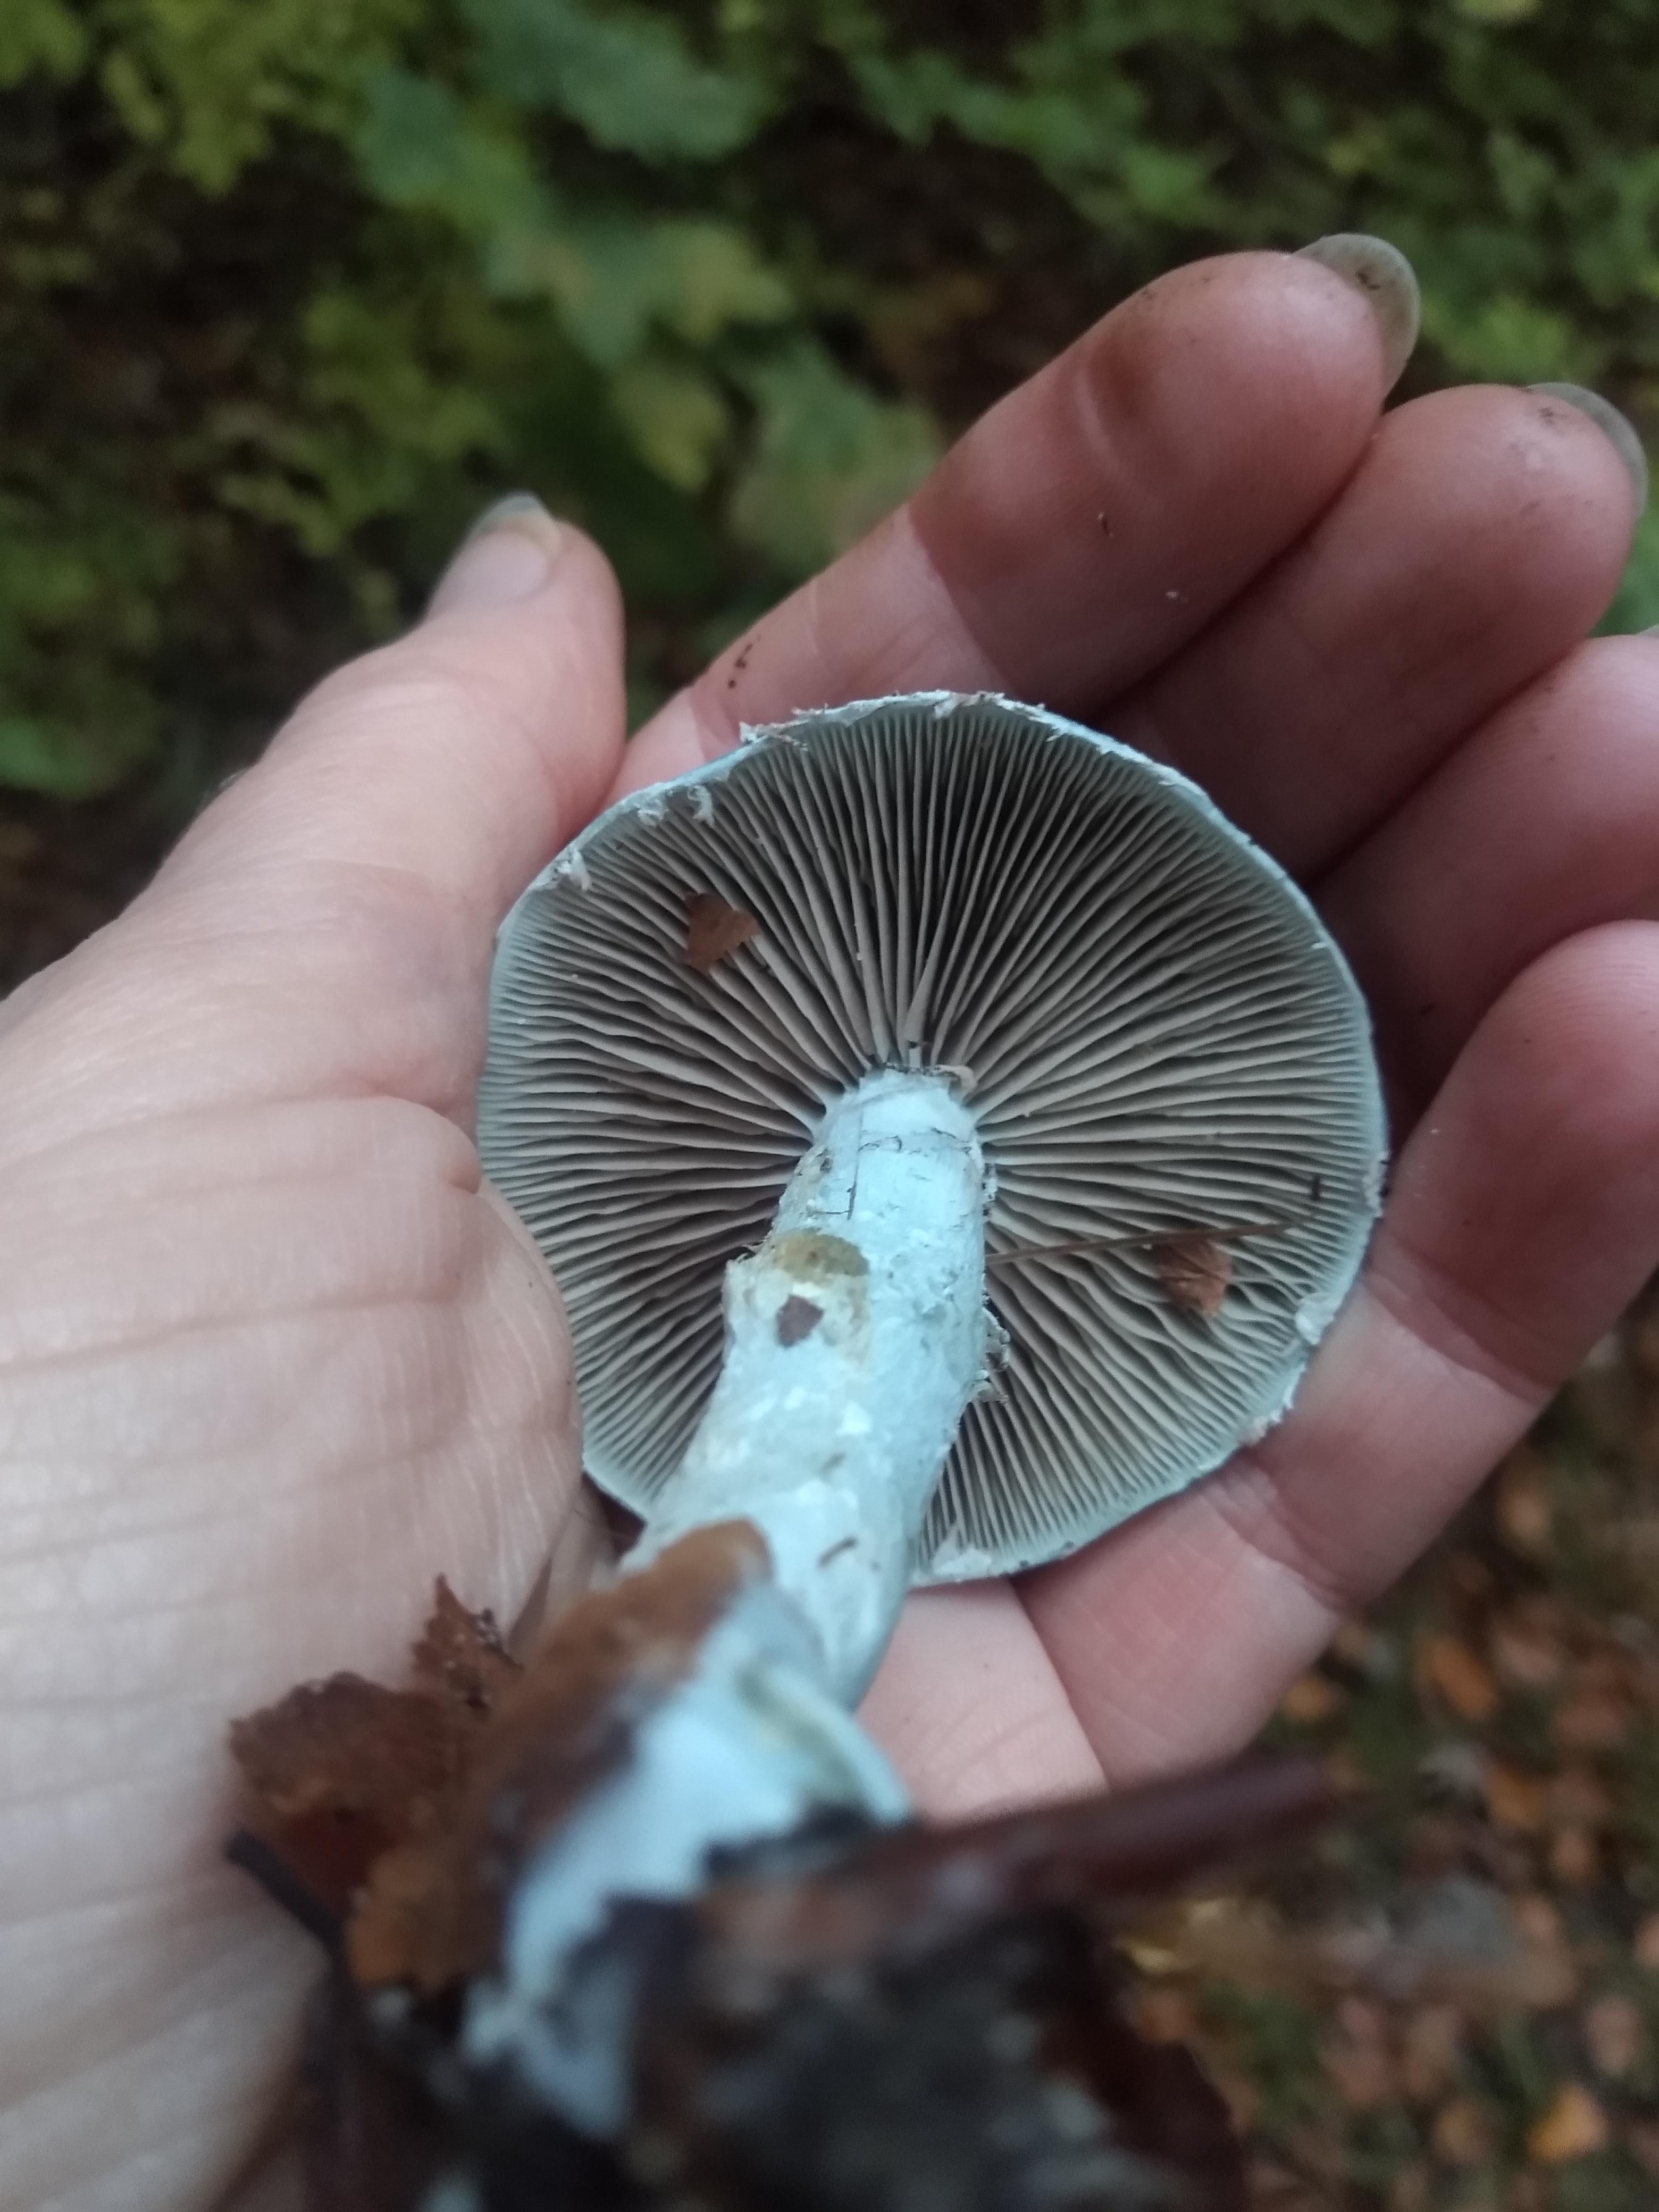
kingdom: Fungi
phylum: Basidiomycota
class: Agaricomycetes
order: Agaricales
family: Strophariaceae
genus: Stropharia
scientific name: Stropharia cyanea
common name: blågrøn bredblad
